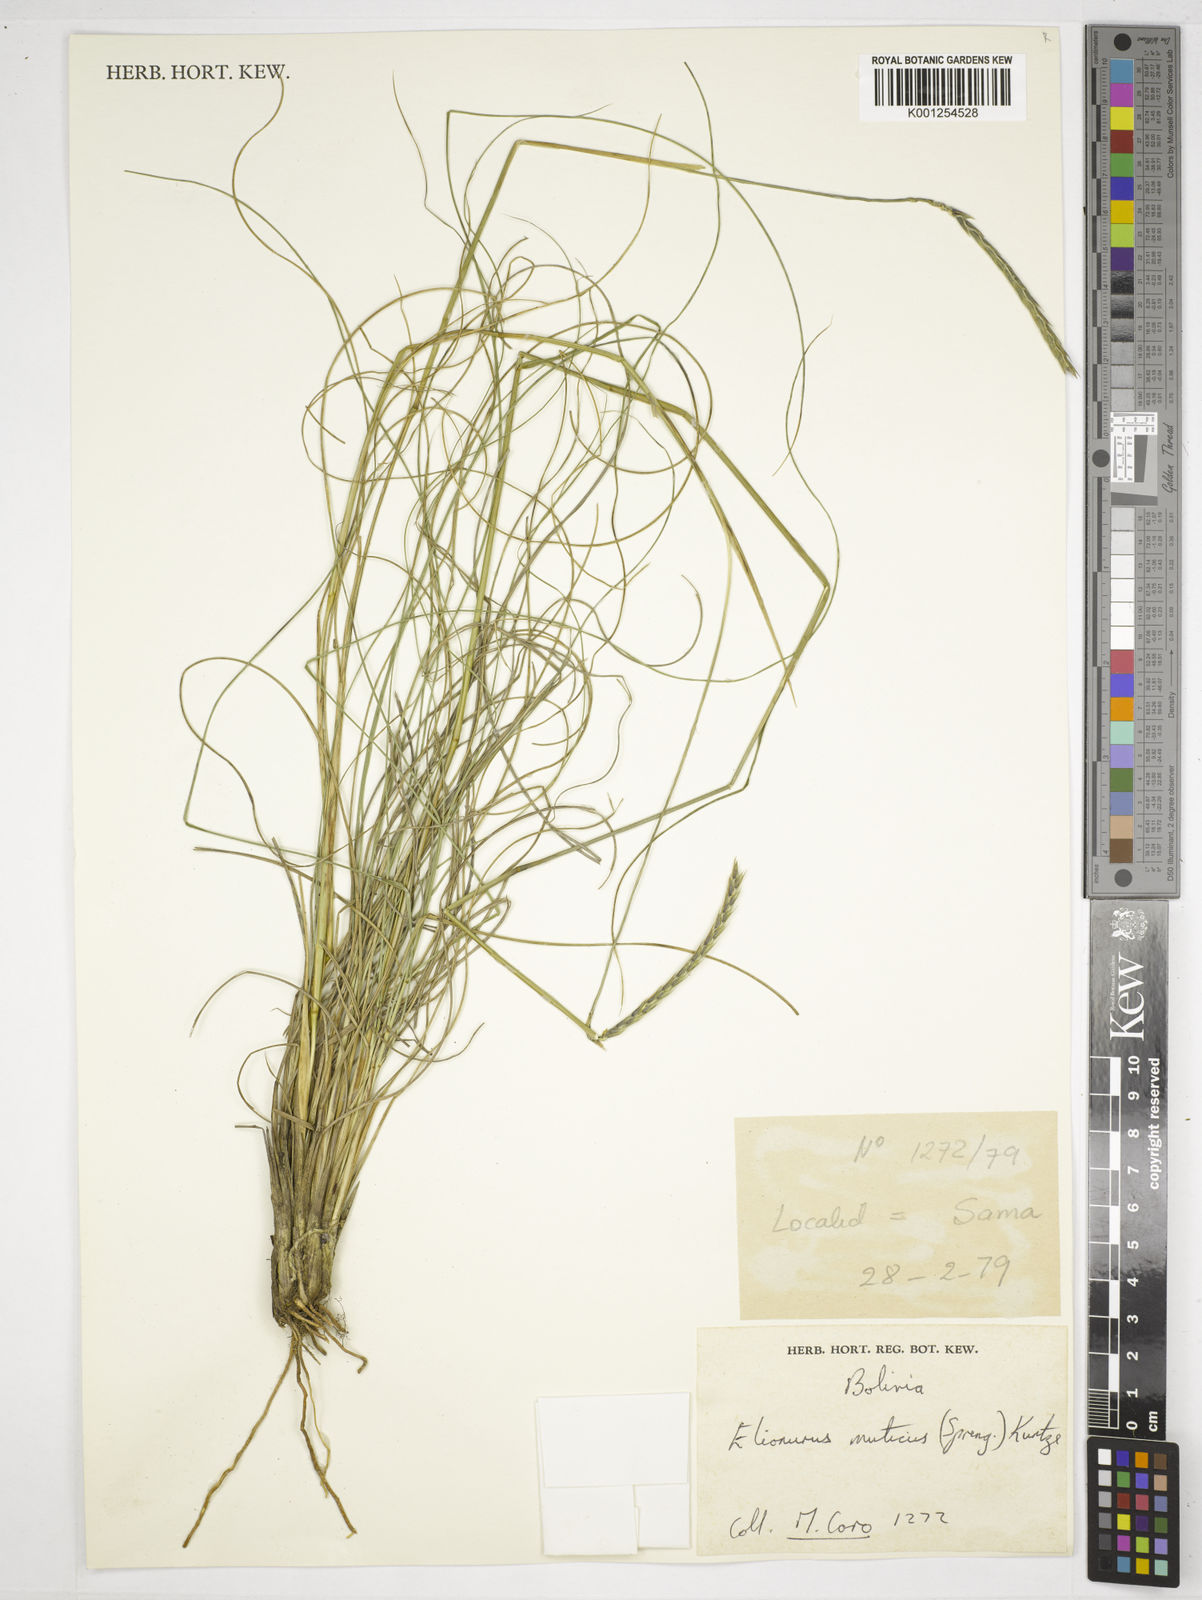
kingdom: Plantae
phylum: Tracheophyta
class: Liliopsida
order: Poales
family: Poaceae
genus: Elionurus
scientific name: Elionurus muticus
